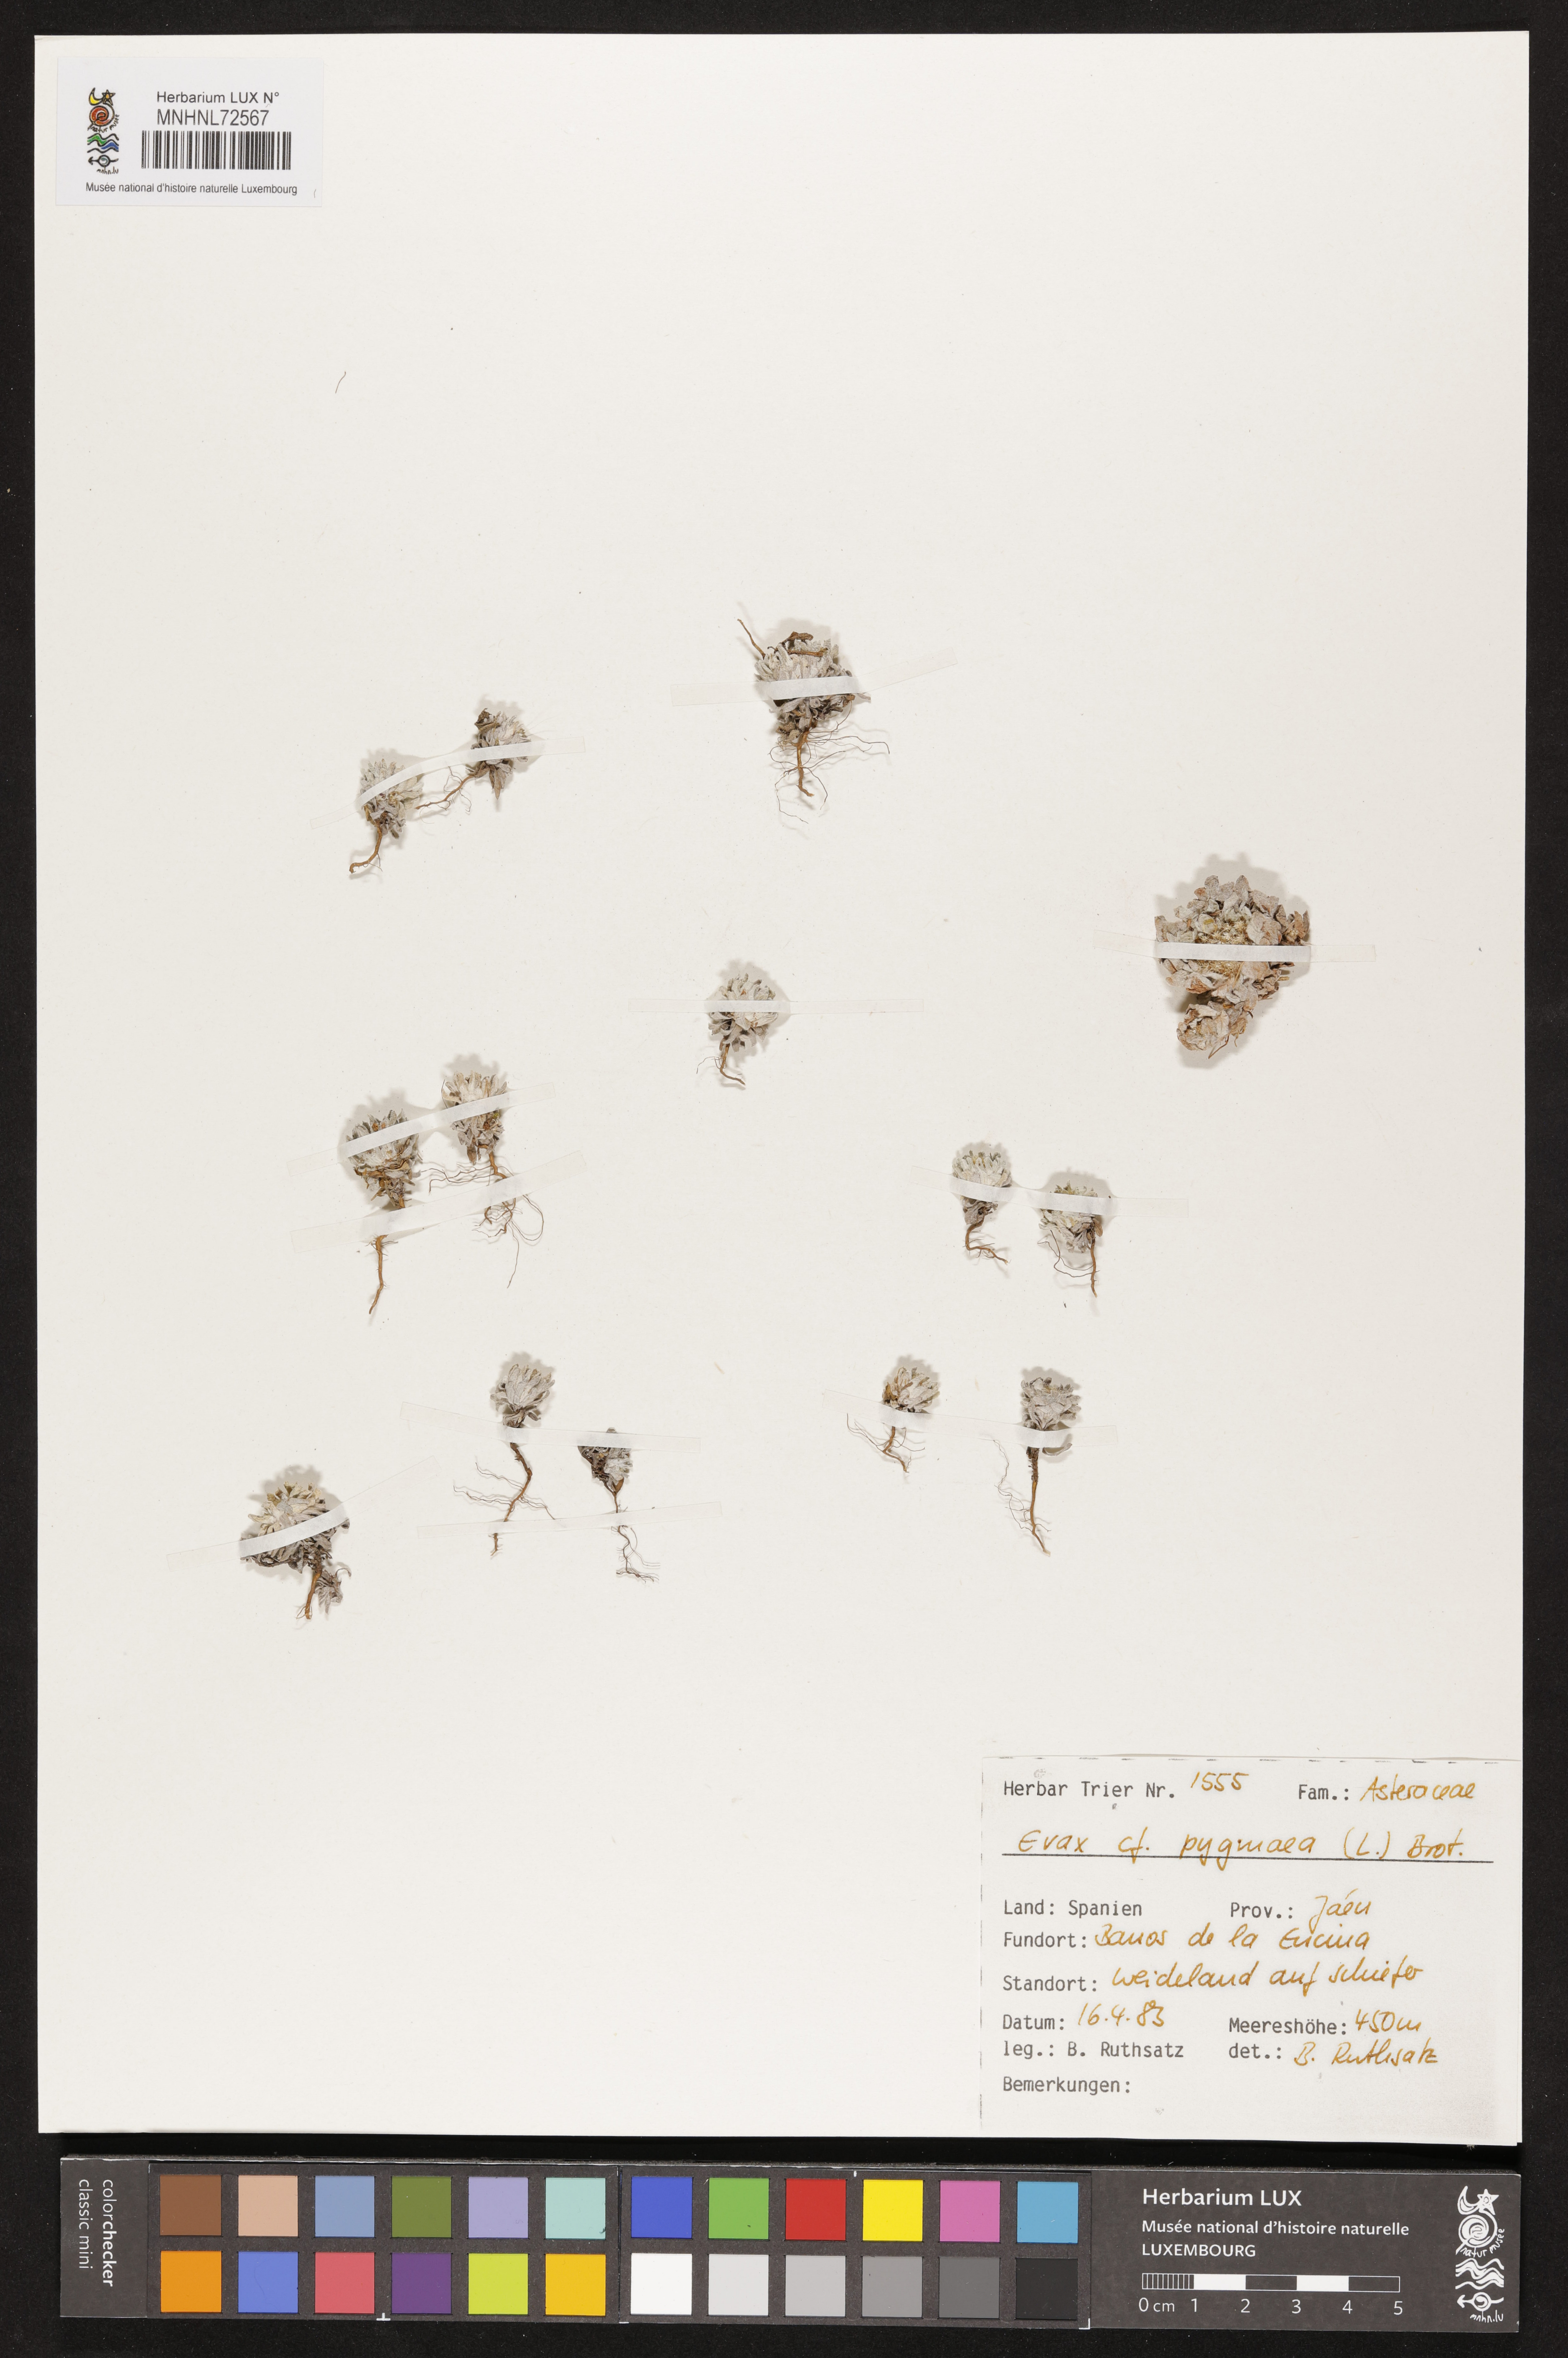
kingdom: Plantae
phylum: Tracheophyta
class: Magnoliopsida
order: Asterales
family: Asteraceae
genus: Filago
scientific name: Filago pygmaea
